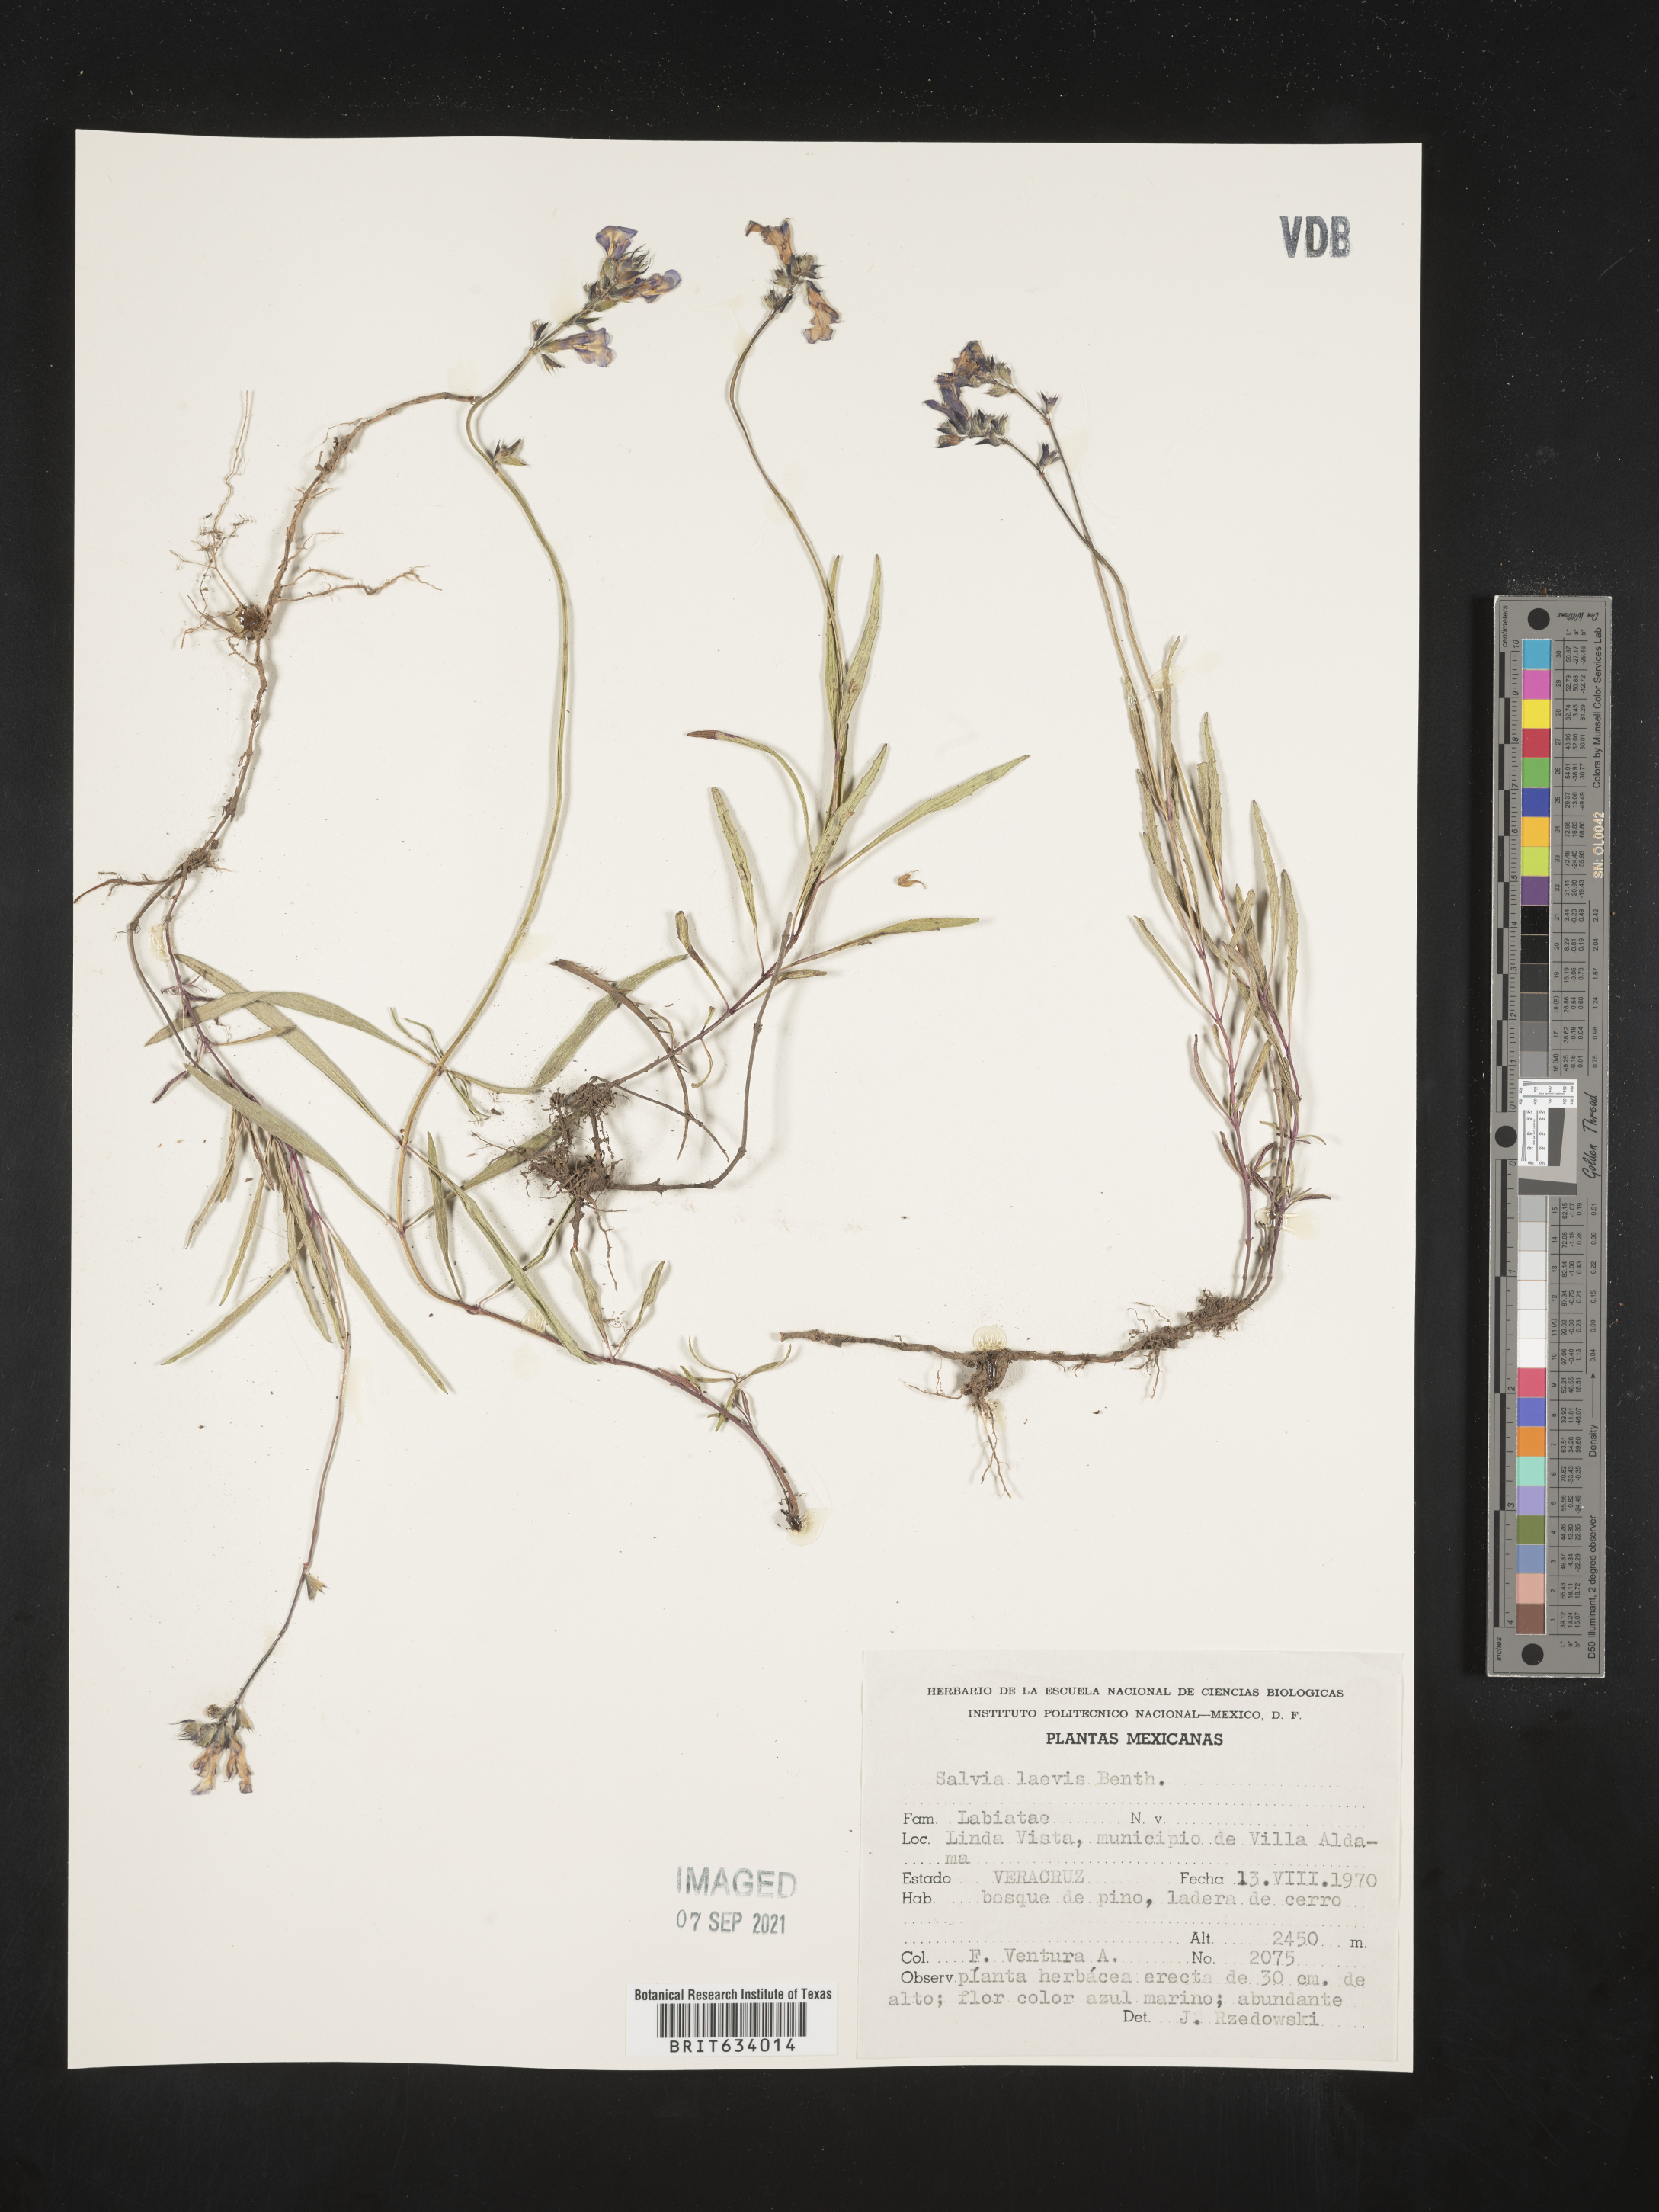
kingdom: Plantae
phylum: Tracheophyta
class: Magnoliopsida
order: Lamiales
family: Lamiaceae
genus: Salvia
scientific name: Salvia
